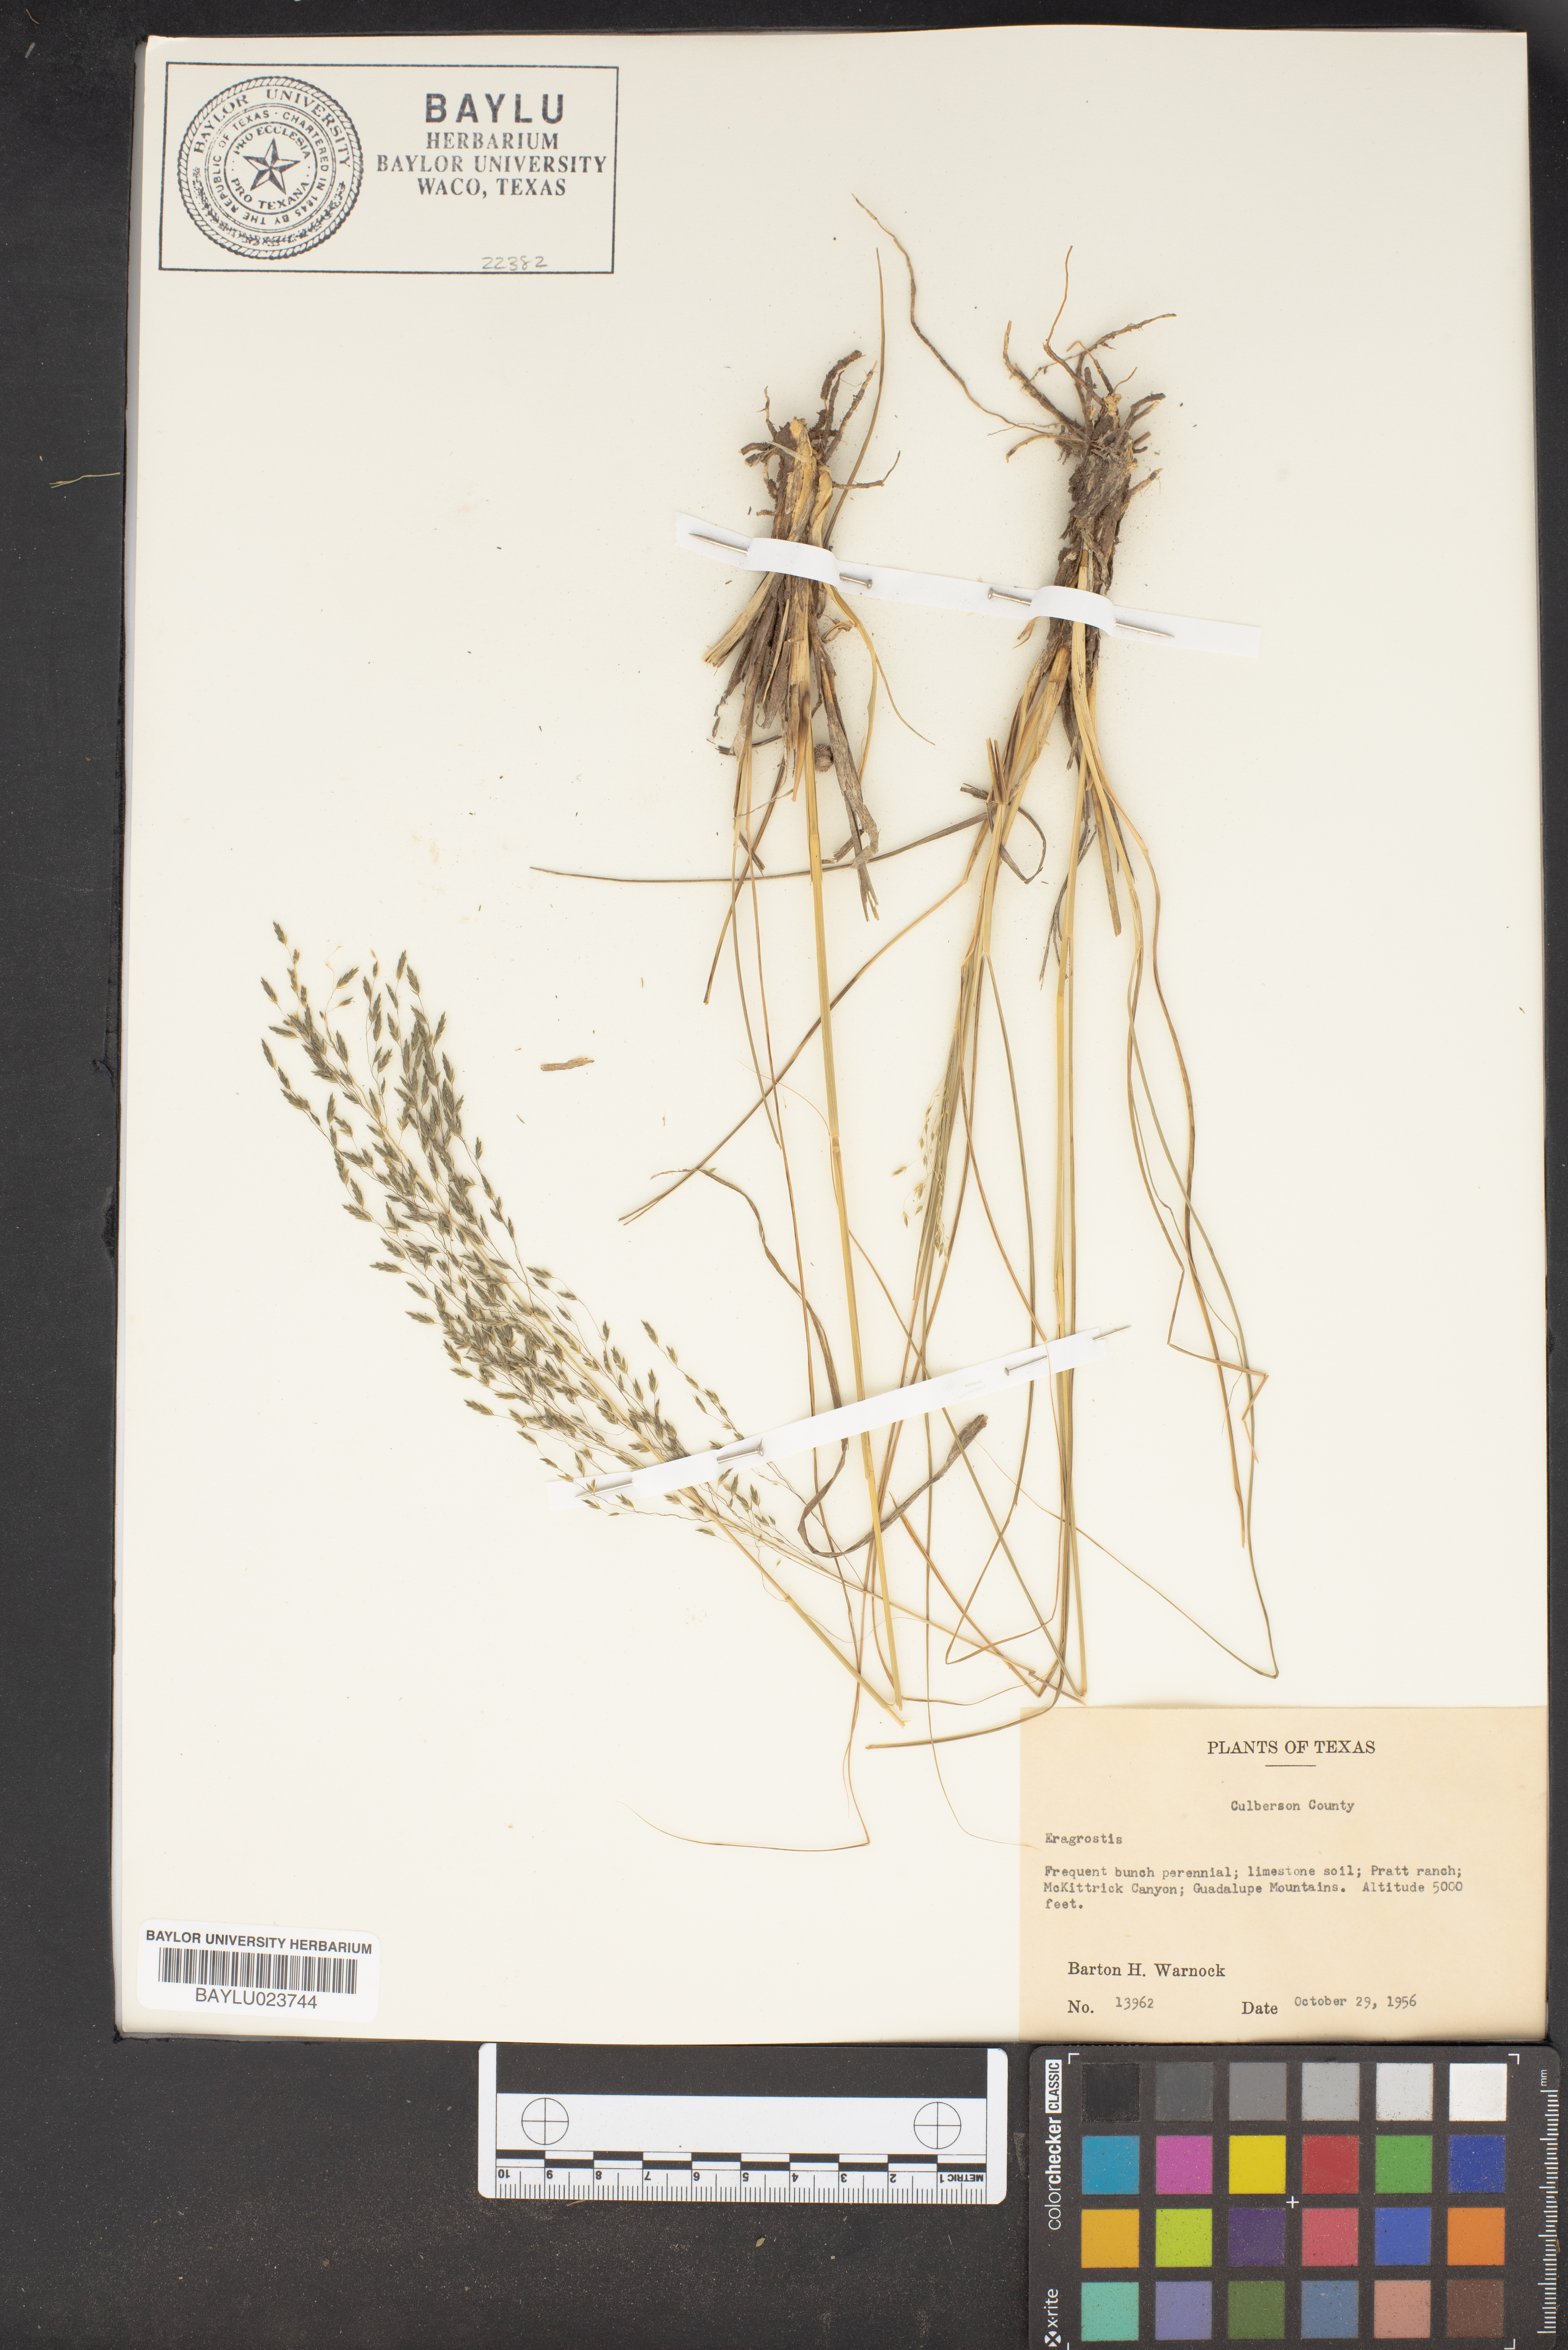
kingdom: Plantae
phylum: Tracheophyta
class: Liliopsida
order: Poales
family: Poaceae
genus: Eragrostis
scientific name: Eragrostis
